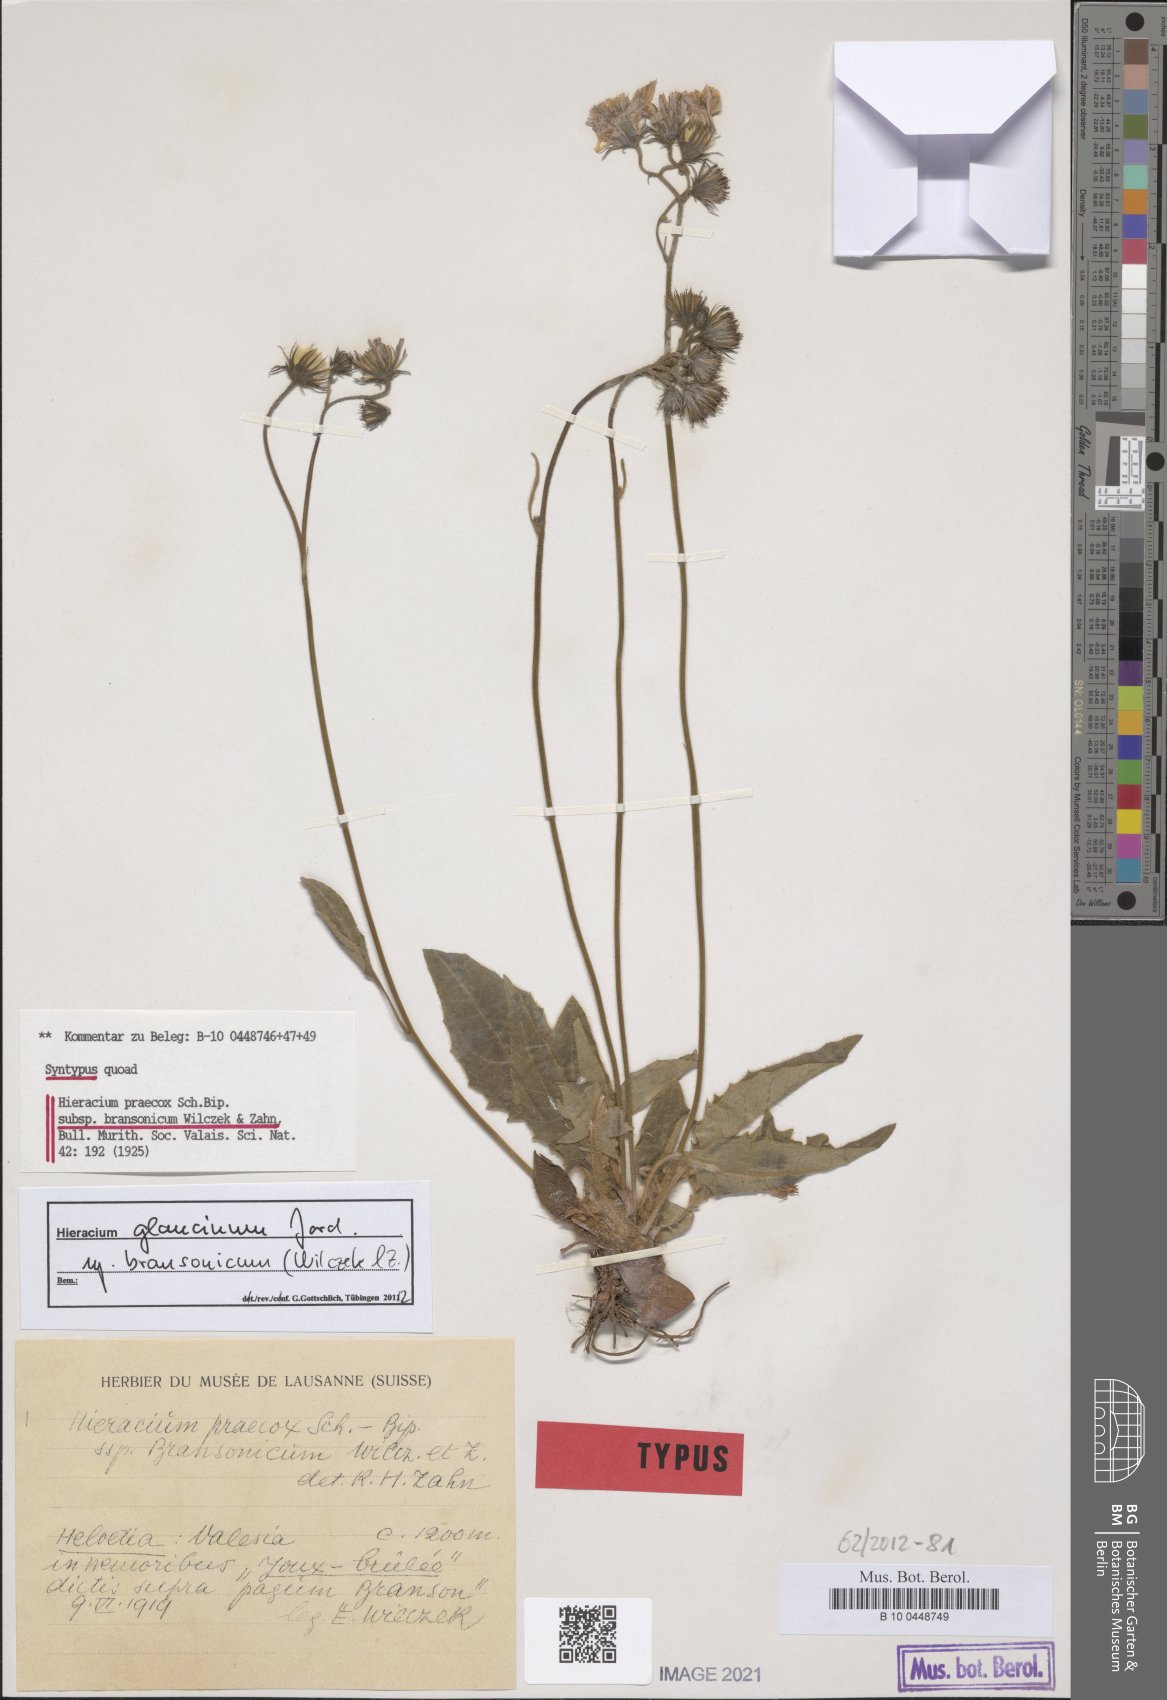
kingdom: Plantae
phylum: Tracheophyta
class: Magnoliopsida
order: Asterales
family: Asteraceae
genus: Hieracium
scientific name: Hieracium praecox
